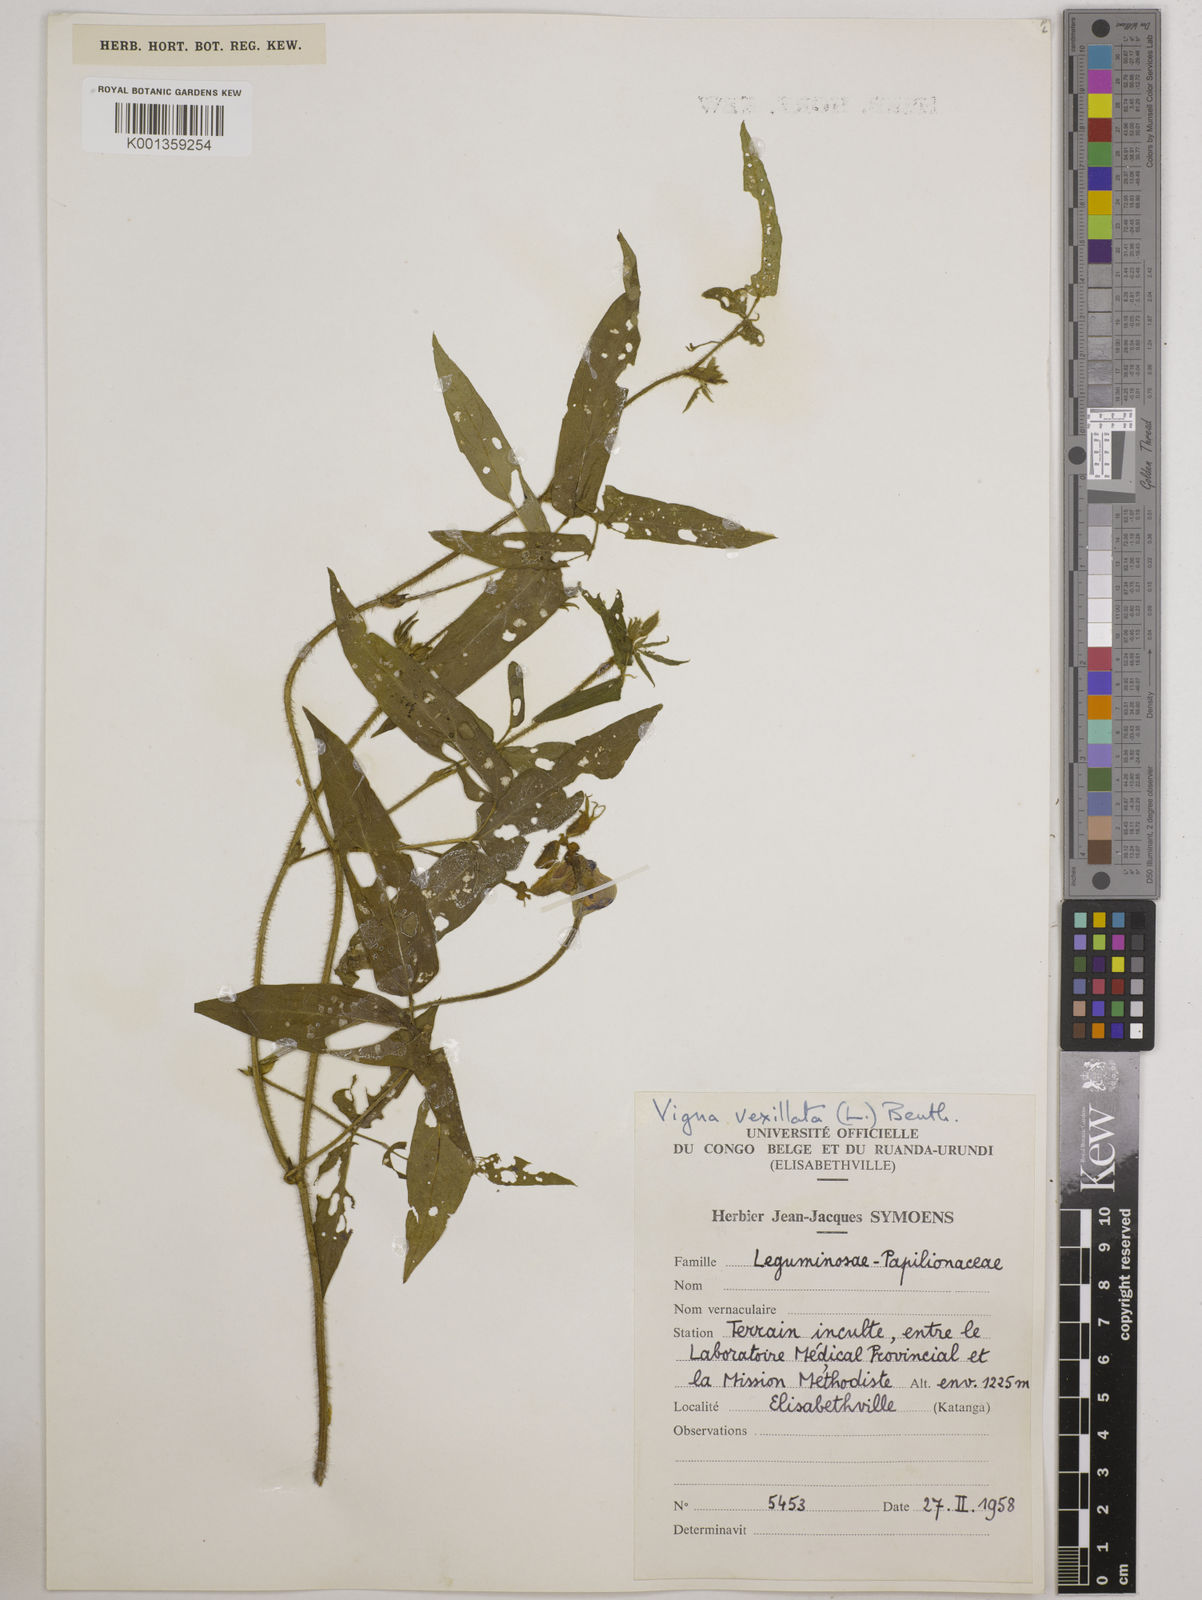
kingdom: Plantae
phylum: Tracheophyta
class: Magnoliopsida
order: Fabales
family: Fabaceae
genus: Vigna
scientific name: Vigna vexillata
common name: Zombi pea
